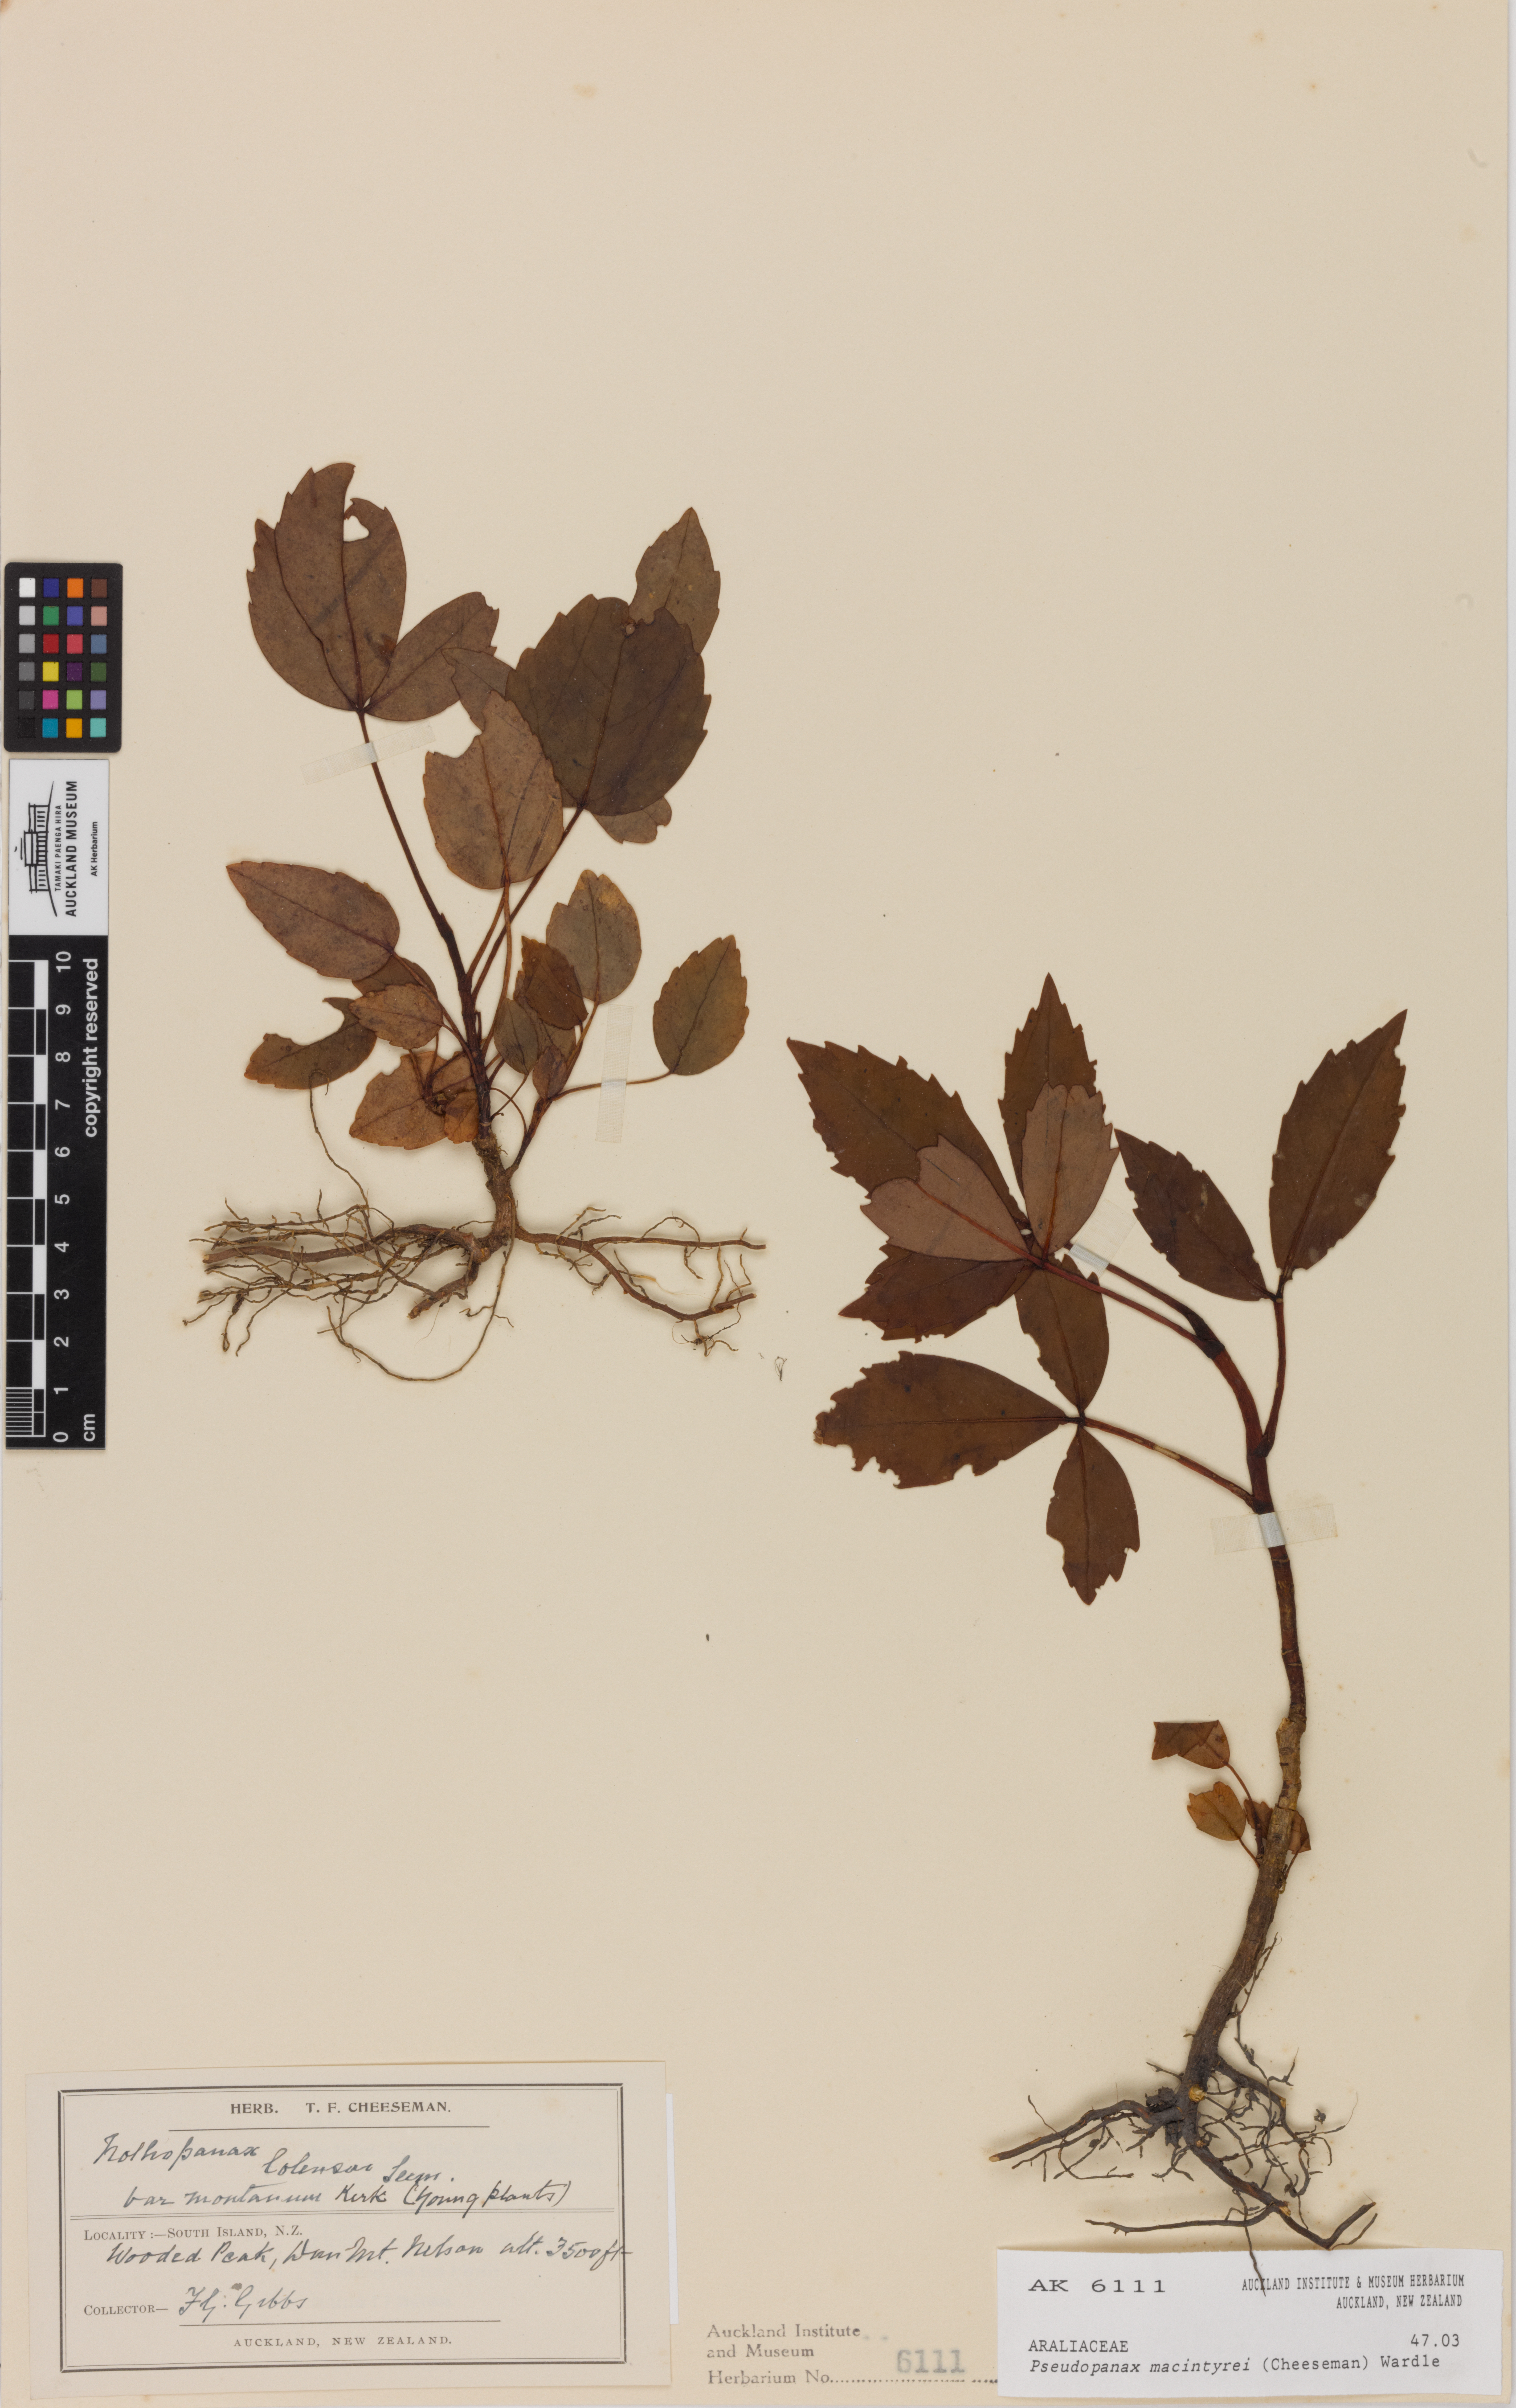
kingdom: Plantae
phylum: Tracheophyta
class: Magnoliopsida
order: Apiales
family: Araliaceae
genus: Neopanax
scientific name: Neopanax macintyrei
